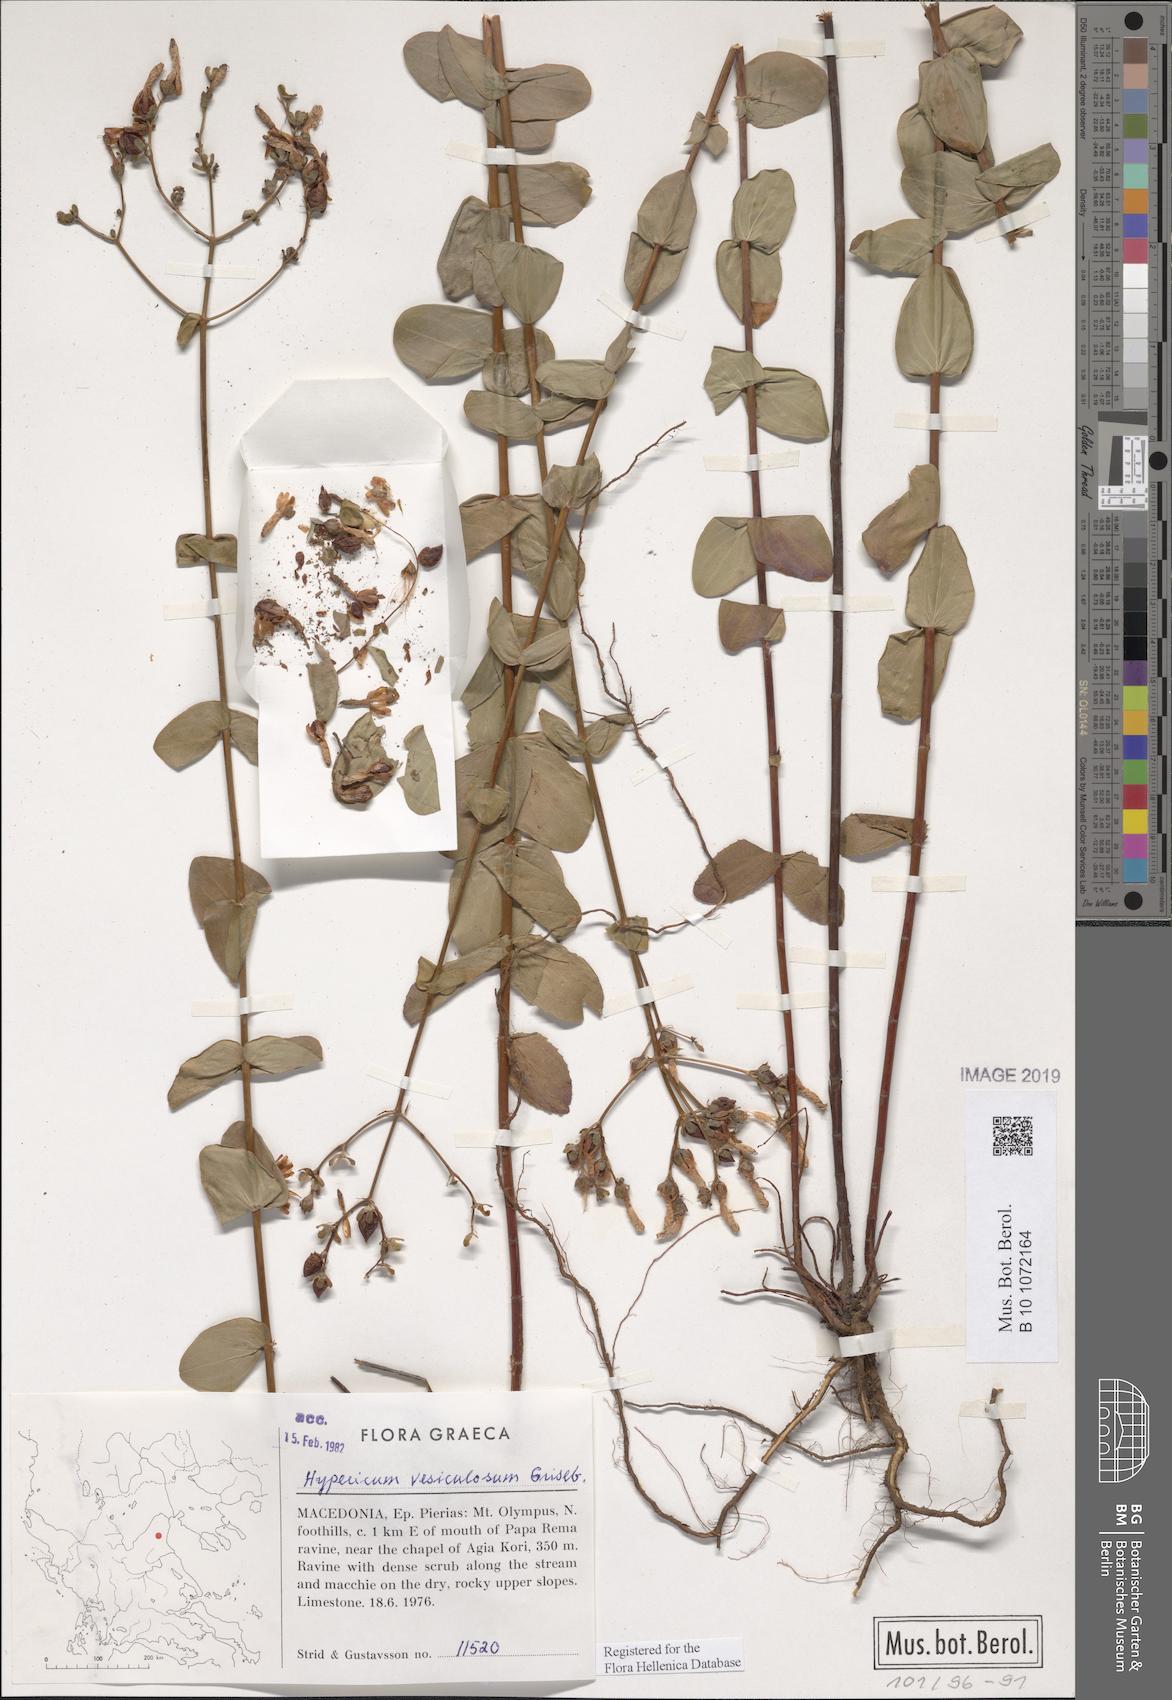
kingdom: Plantae
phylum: Tracheophyta
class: Magnoliopsida
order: Malpighiales
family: Hypericaceae
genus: Hypericum
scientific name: Hypericum vesiculosum
